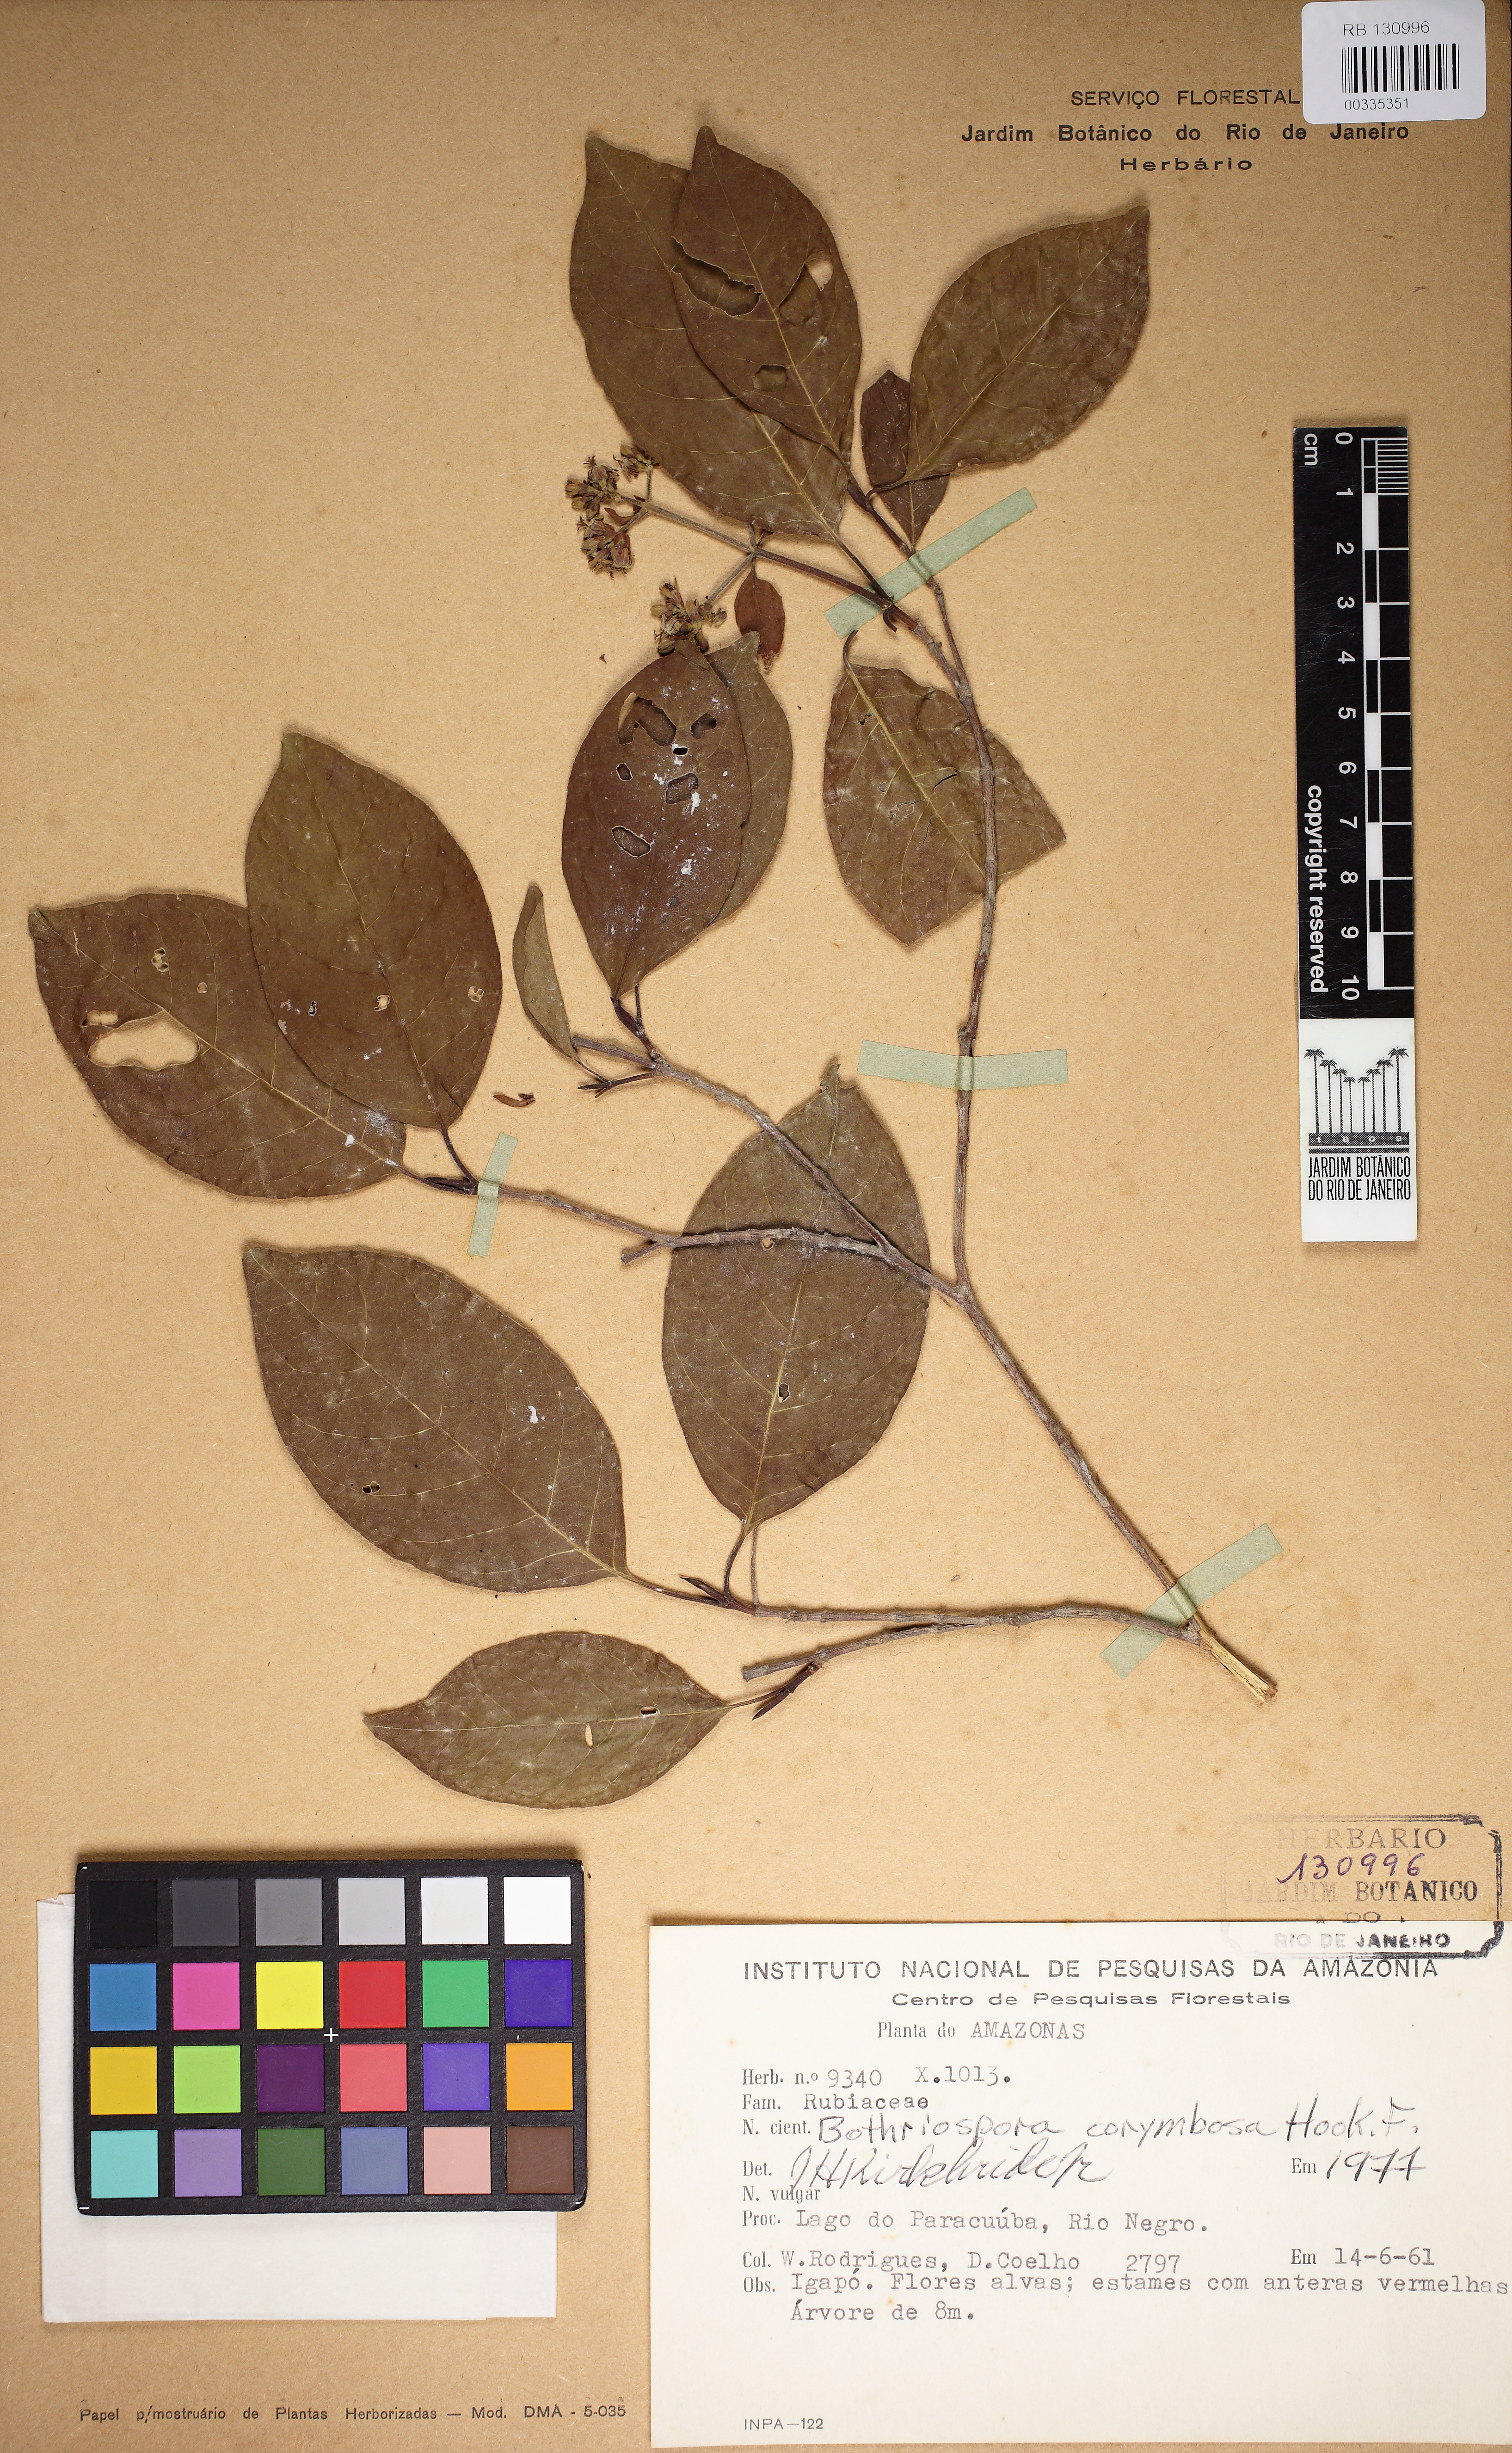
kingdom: Plantae
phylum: Tracheophyta
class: Magnoliopsida
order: Gentianales
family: Rubiaceae
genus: Bothriospora
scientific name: Bothriospora corymbosa
